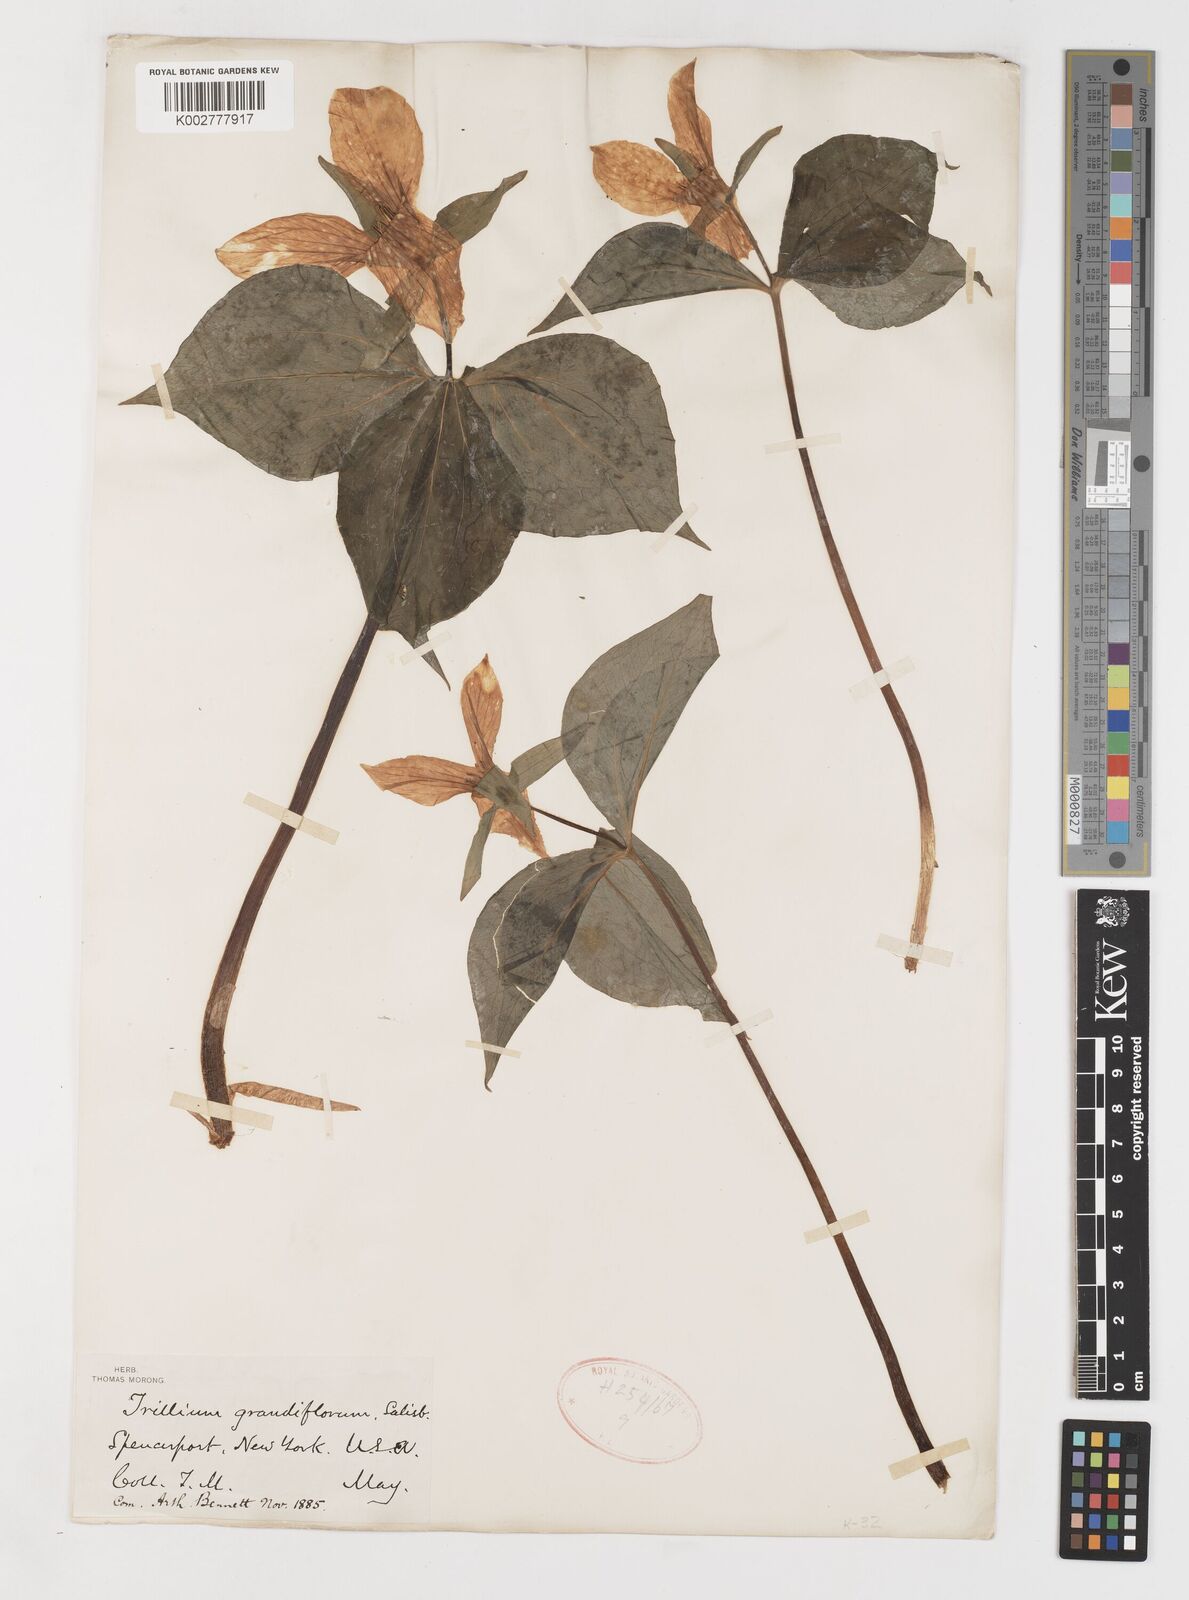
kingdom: Plantae
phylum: Tracheophyta
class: Liliopsida
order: Liliales
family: Melanthiaceae
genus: Trillium
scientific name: Trillium grandiflorum
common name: Great white trillium
